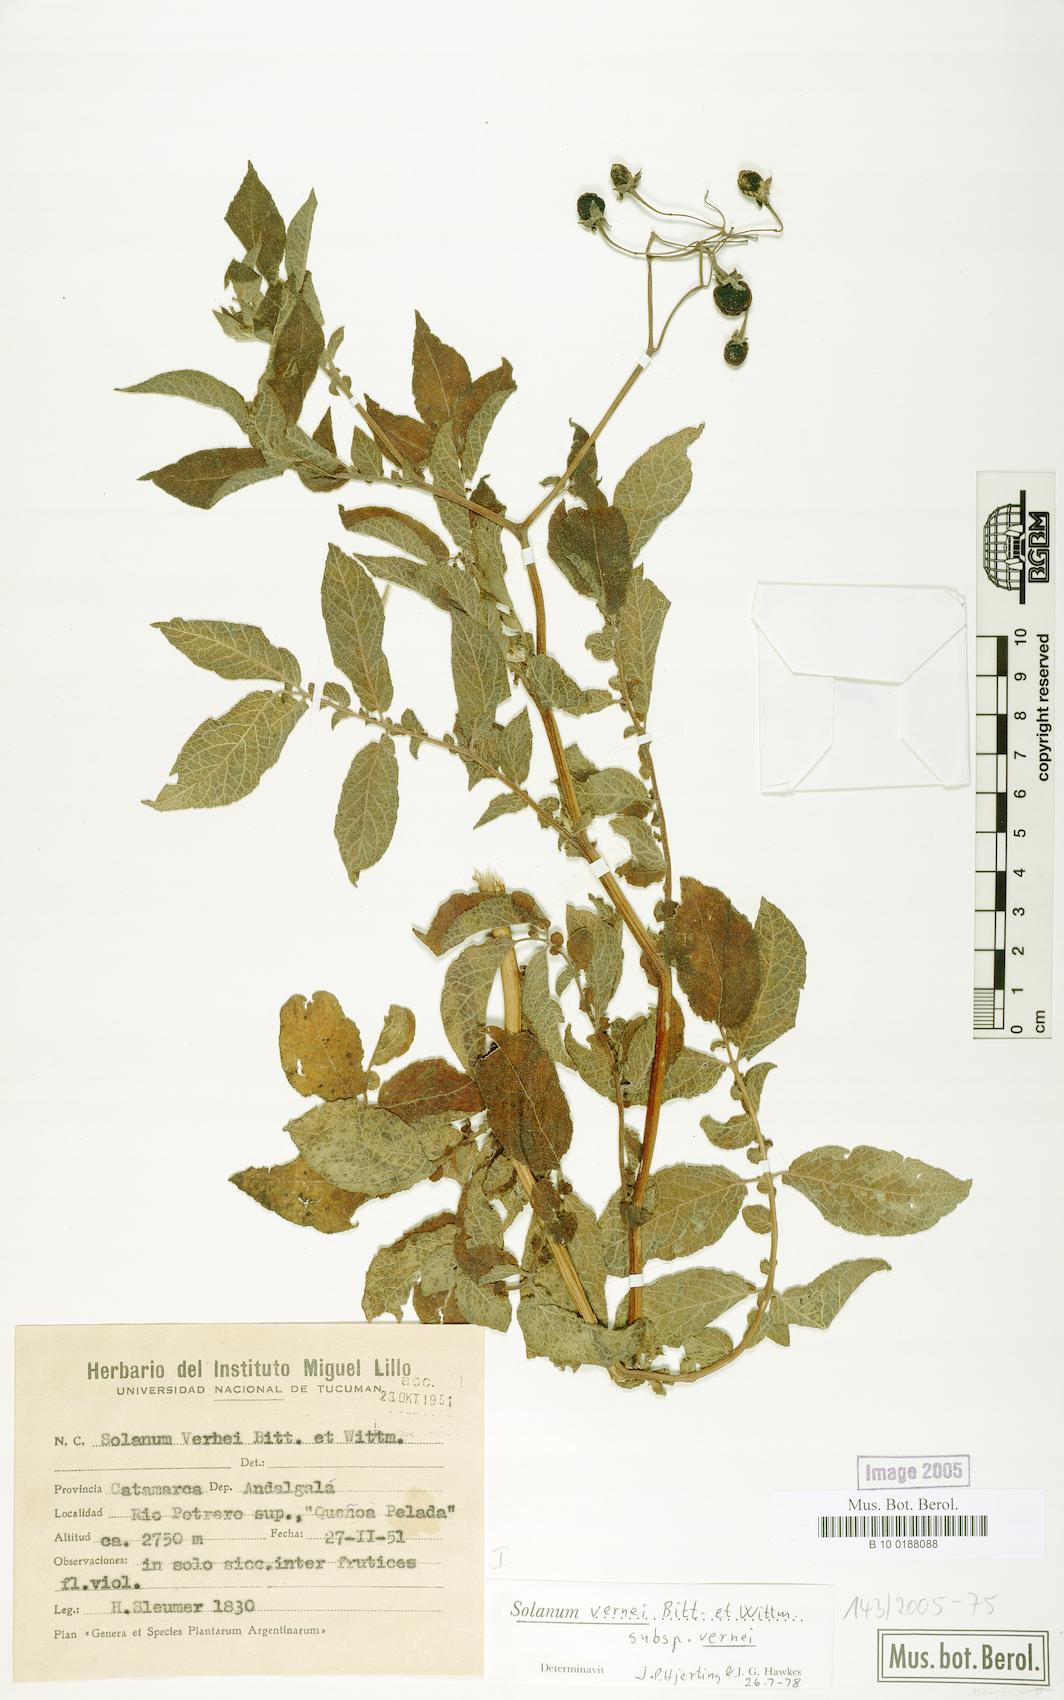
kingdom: Plantae
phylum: Tracheophyta
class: Magnoliopsida
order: Solanales
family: Solanaceae
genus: Solanum
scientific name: Solanum vernei
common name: Purple potato
